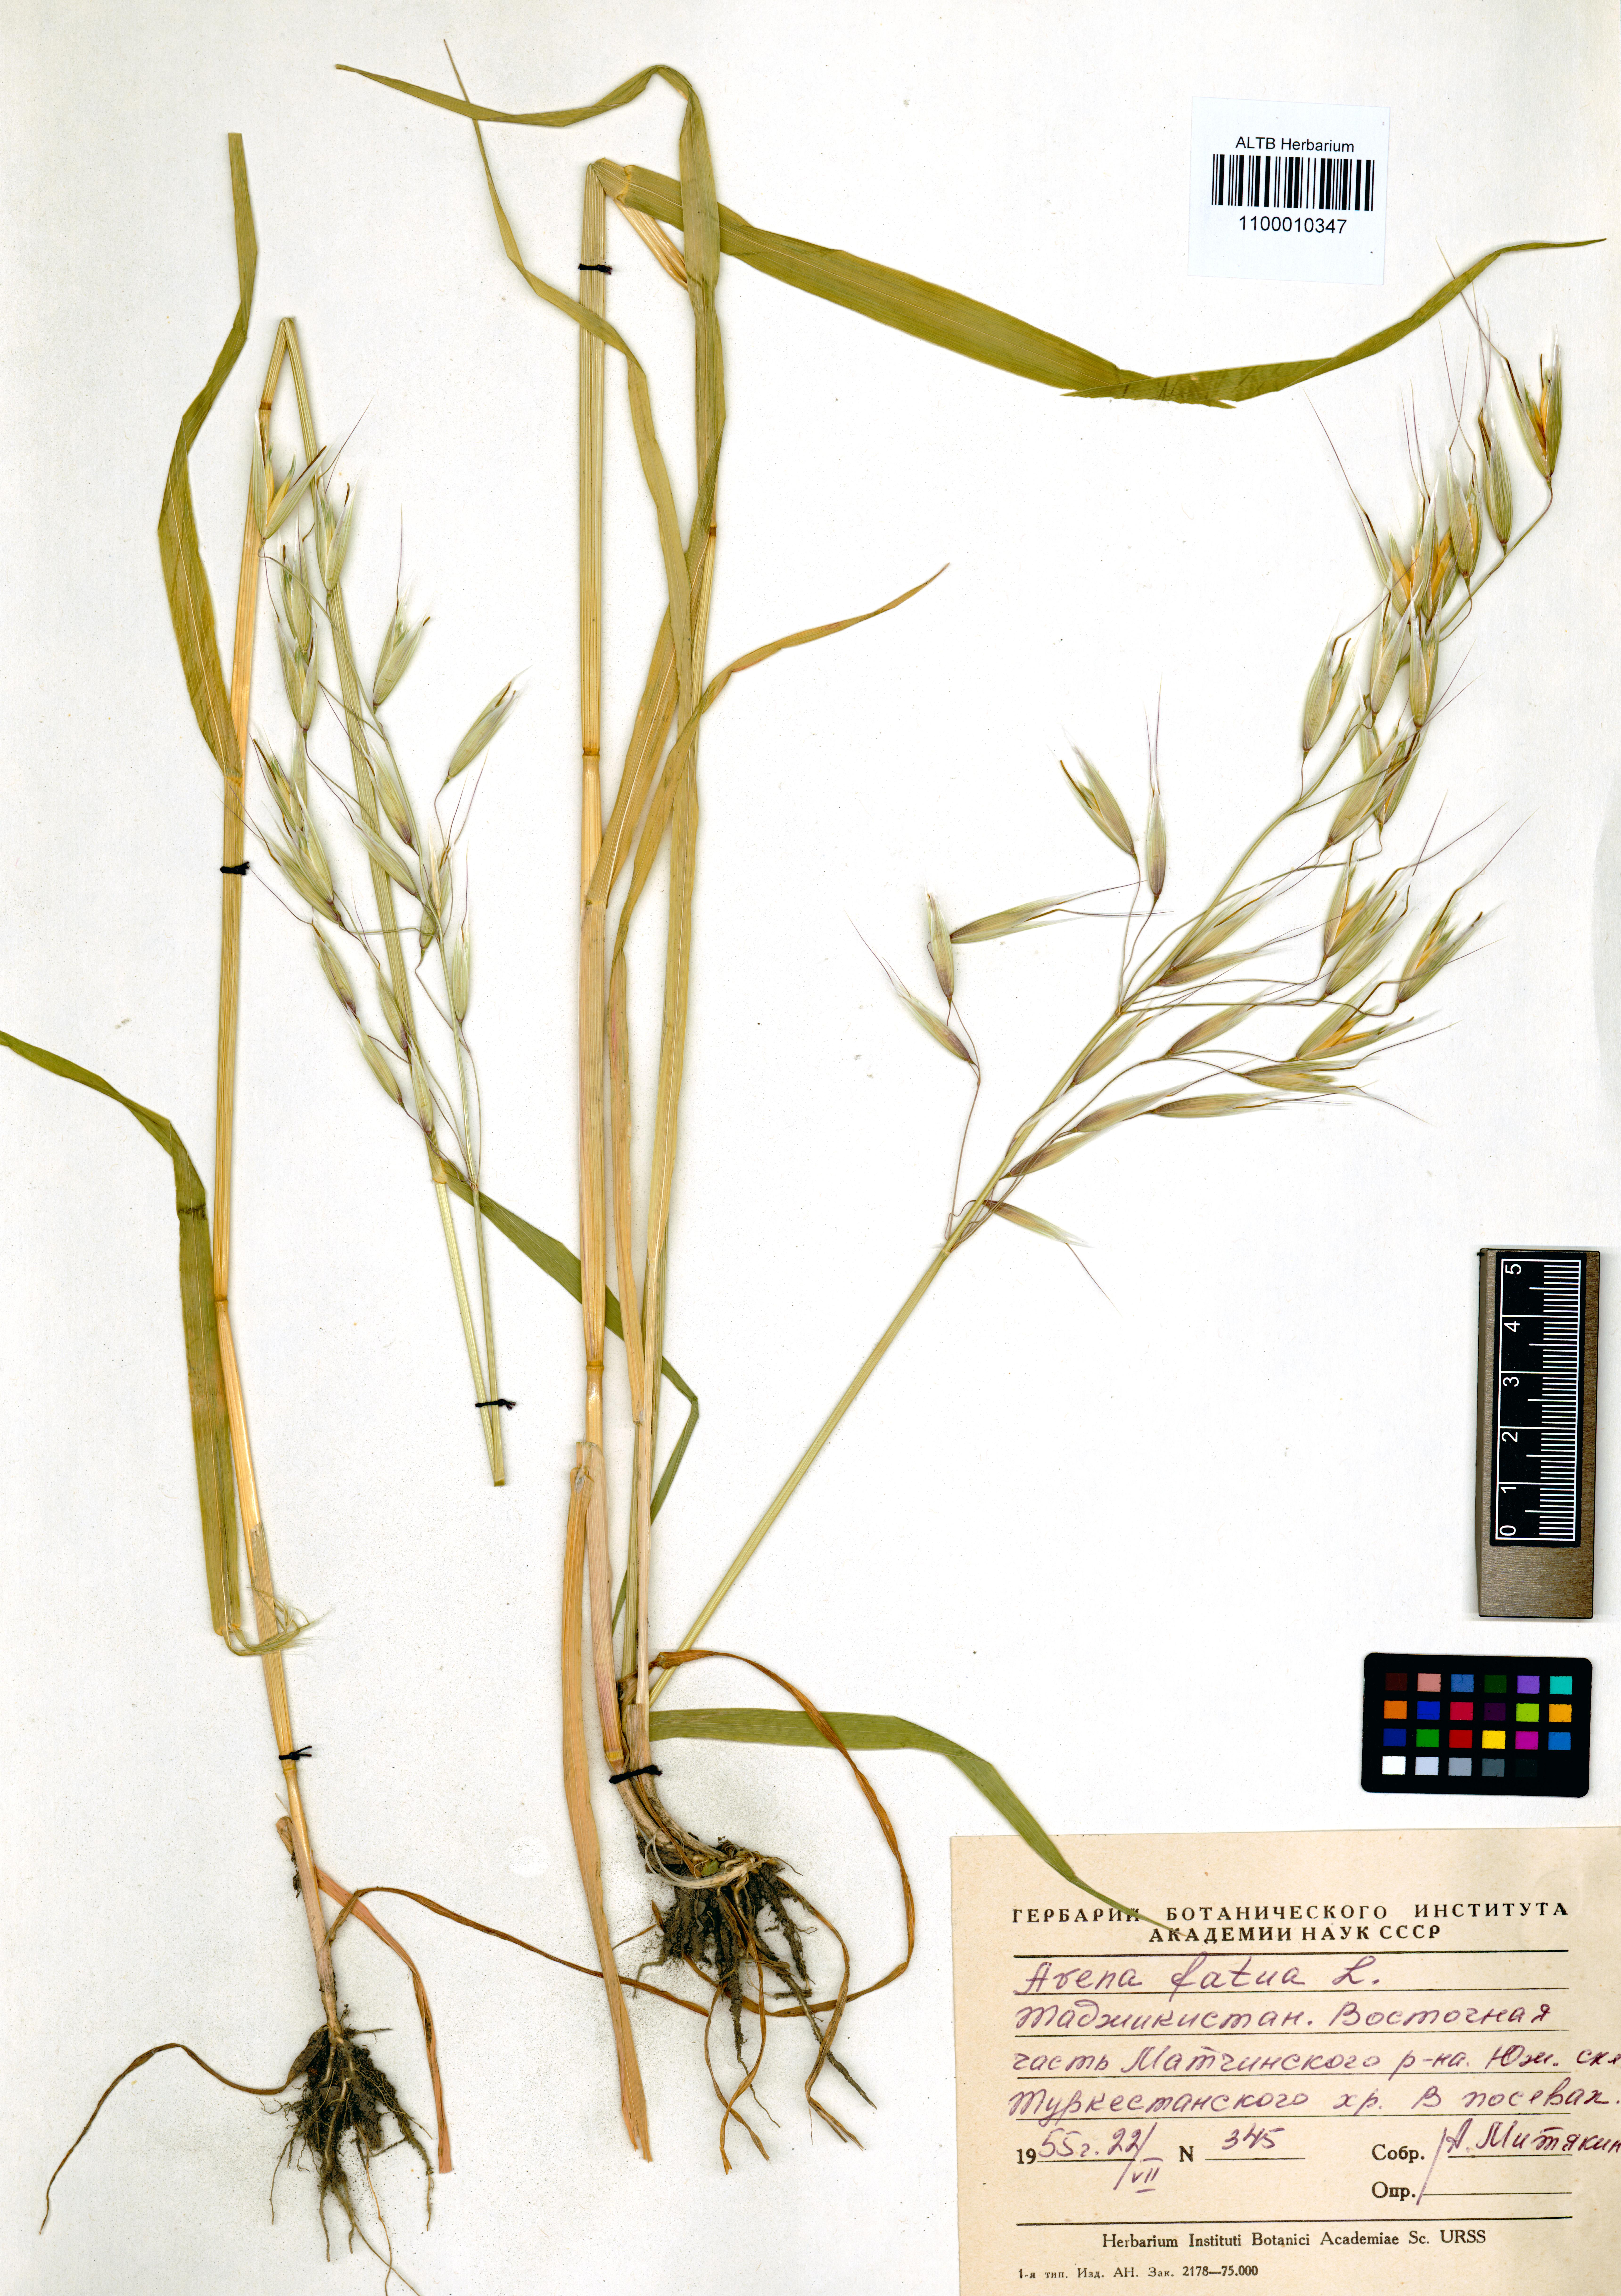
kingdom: Plantae
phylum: Tracheophyta
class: Liliopsida
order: Poales
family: Poaceae
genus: Avena
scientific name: Avena fatua
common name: Wild oat
